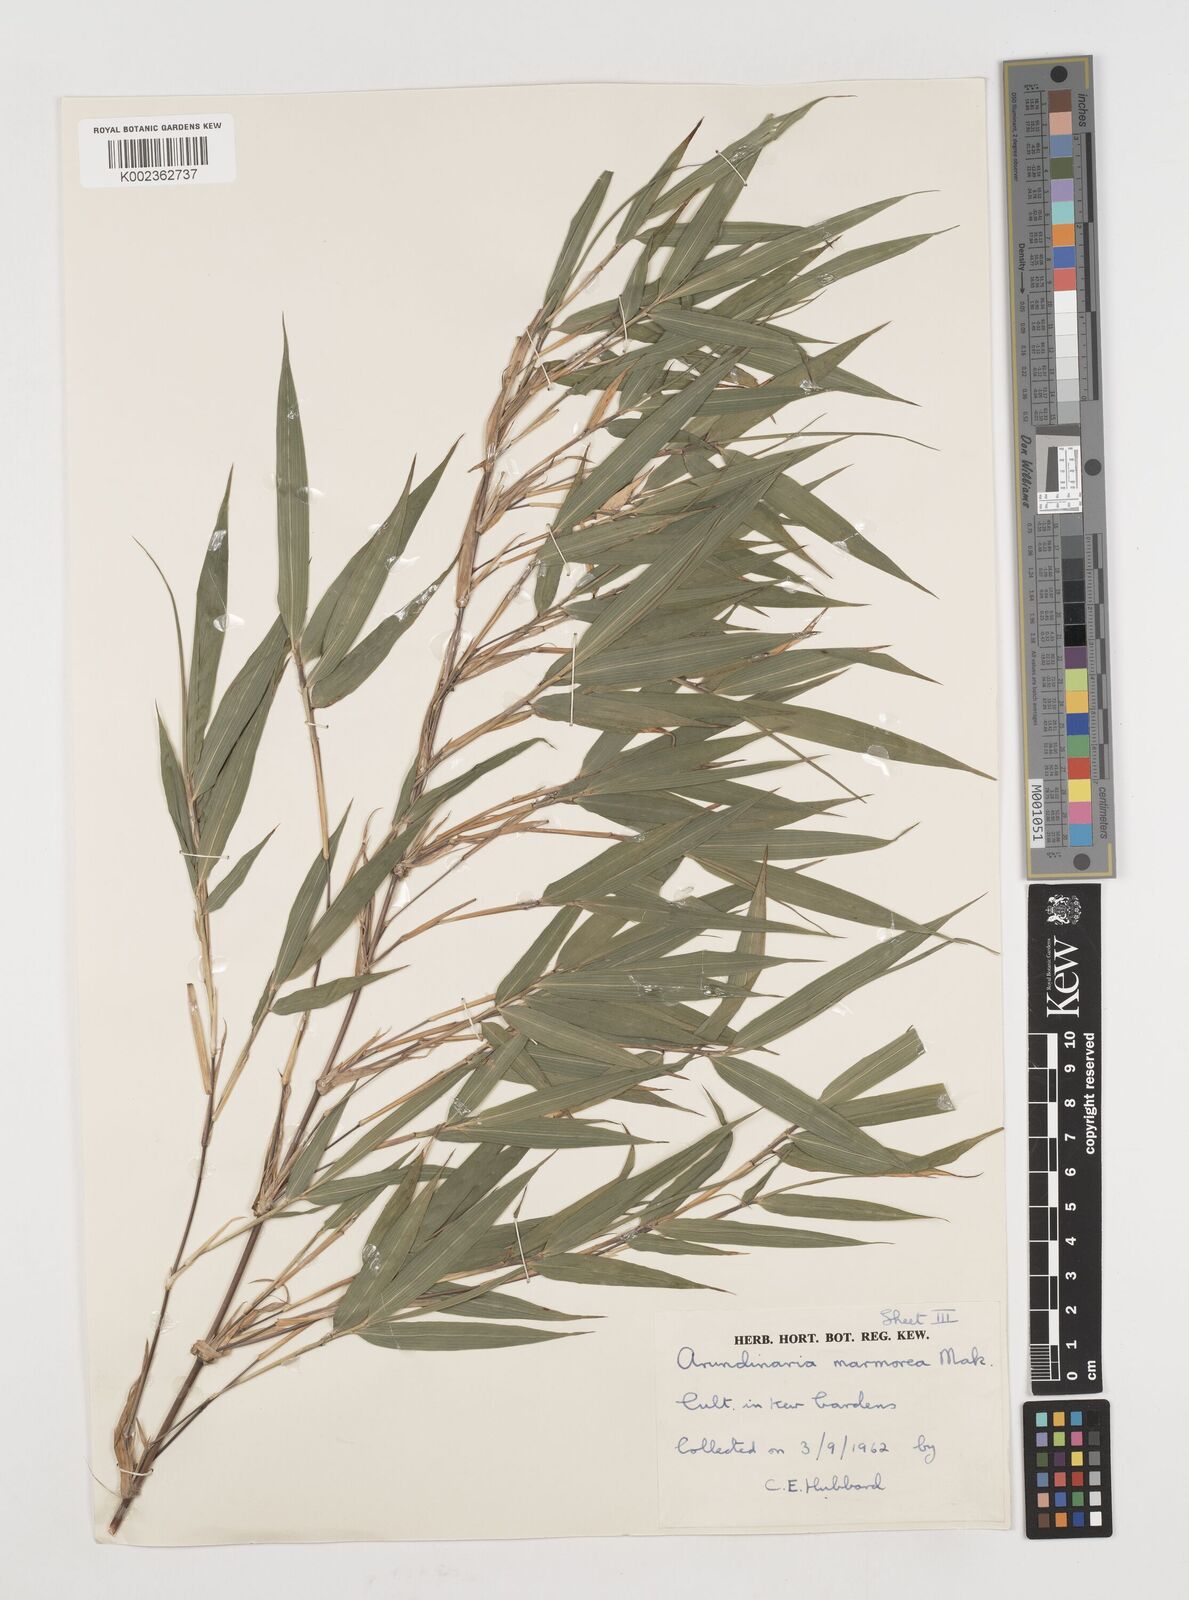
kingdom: Plantae
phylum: Tracheophyta
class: Liliopsida
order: Poales
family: Poaceae
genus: Chimonobambusa
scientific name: Chimonobambusa marmorea
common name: Marbled bamboo
